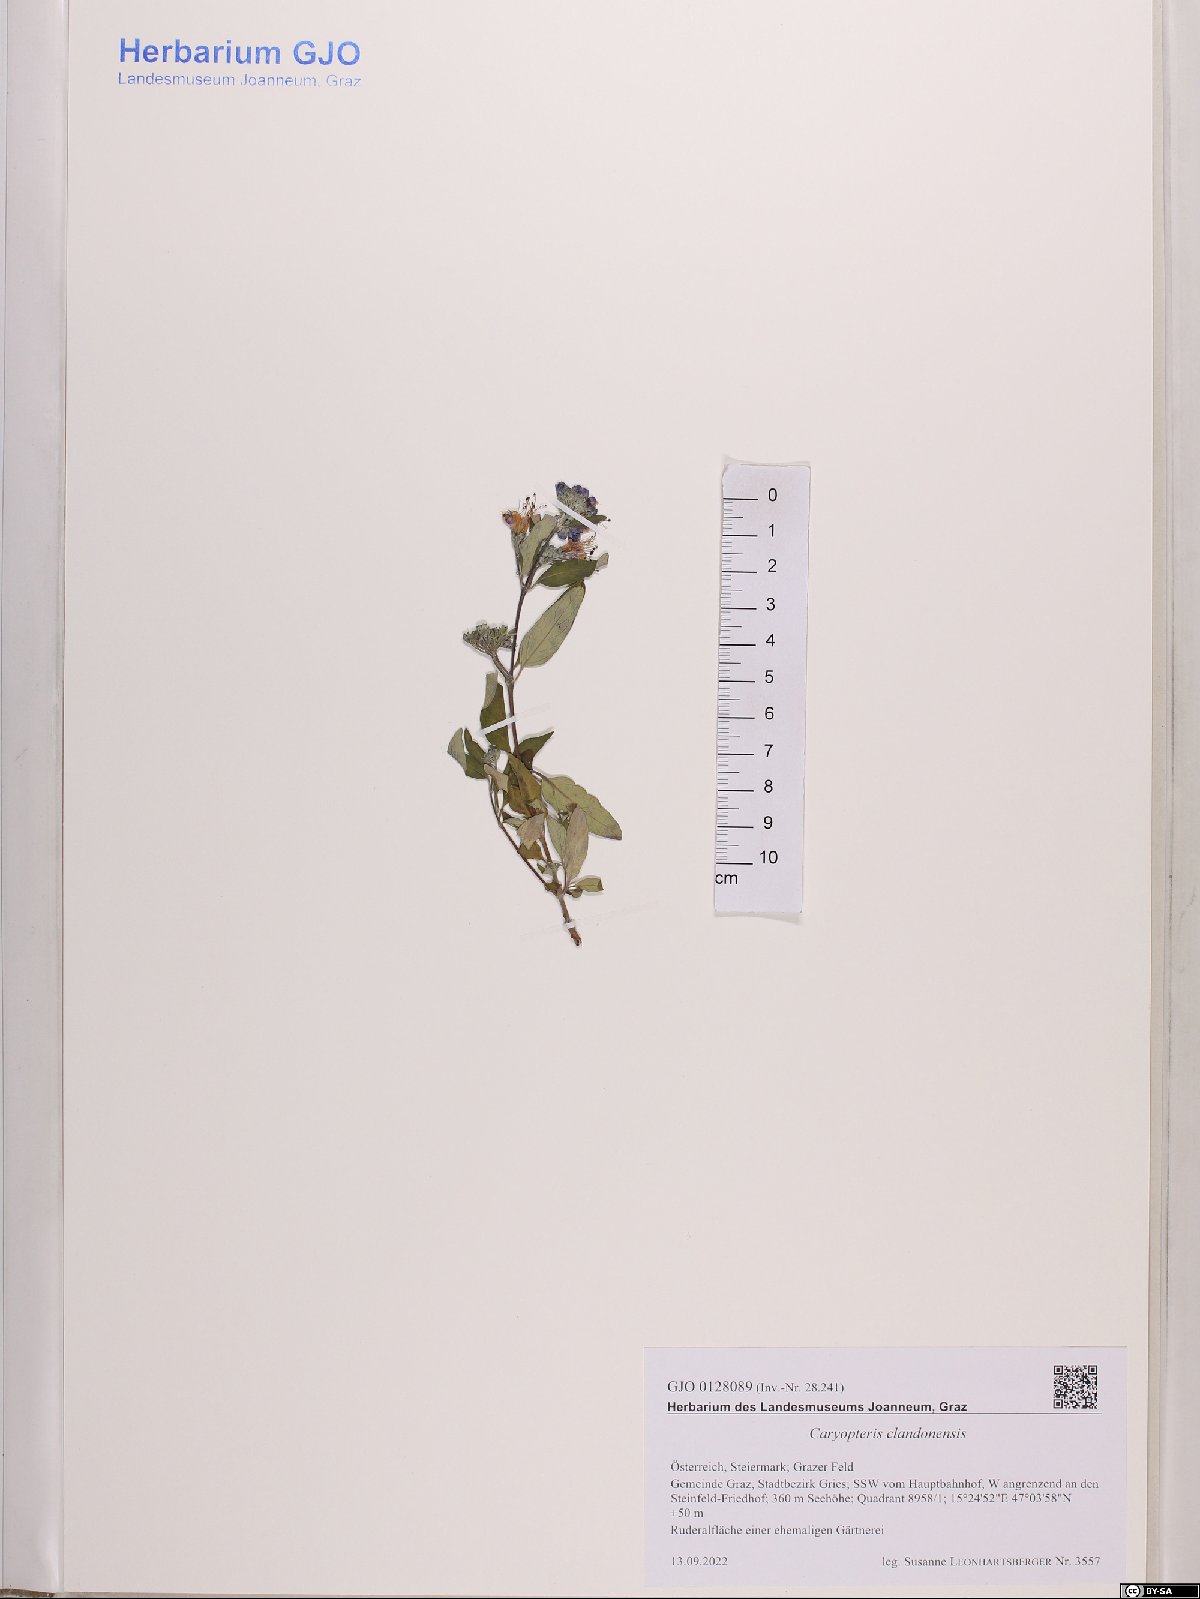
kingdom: Plantae
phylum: Tracheophyta
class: Magnoliopsida
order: Lamiales
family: Lamiaceae
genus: Caryopteris
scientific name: Caryopteris clandonensis
